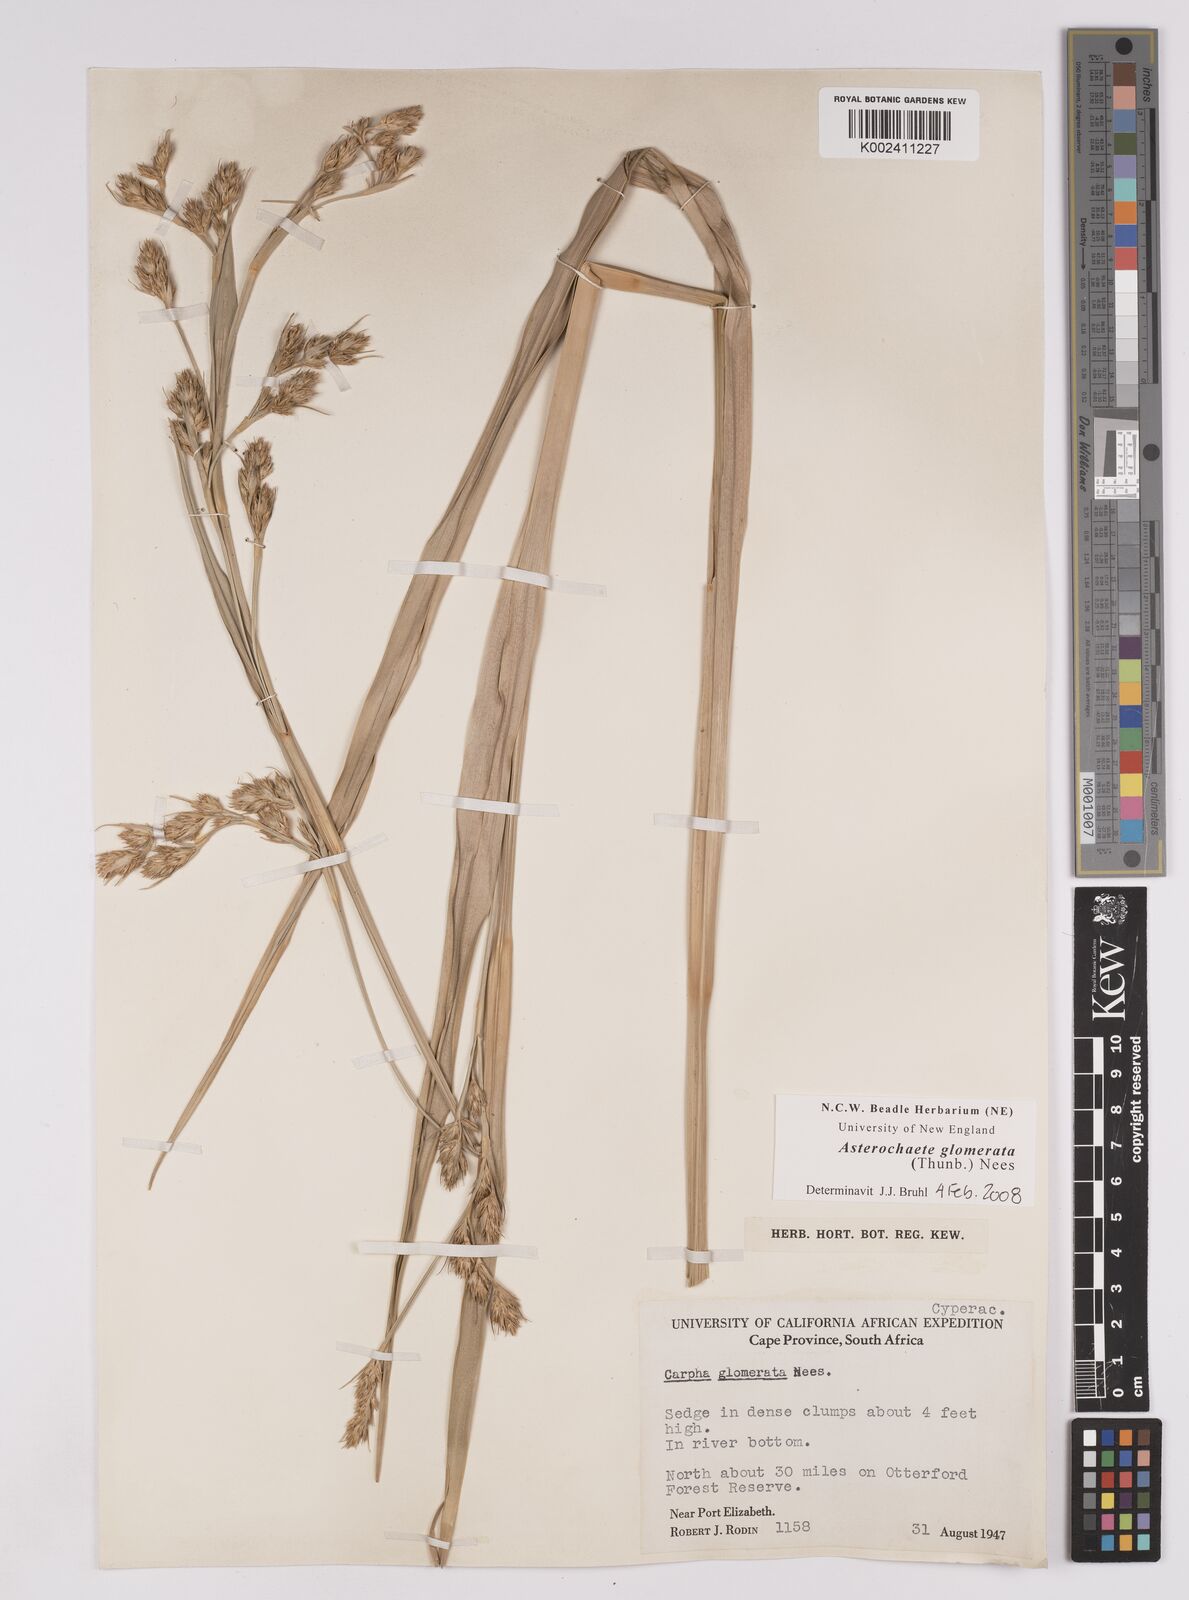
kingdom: Plantae
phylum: Tracheophyta
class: Liliopsida
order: Poales
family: Cyperaceae
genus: Carpha
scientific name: Carpha glomerata
